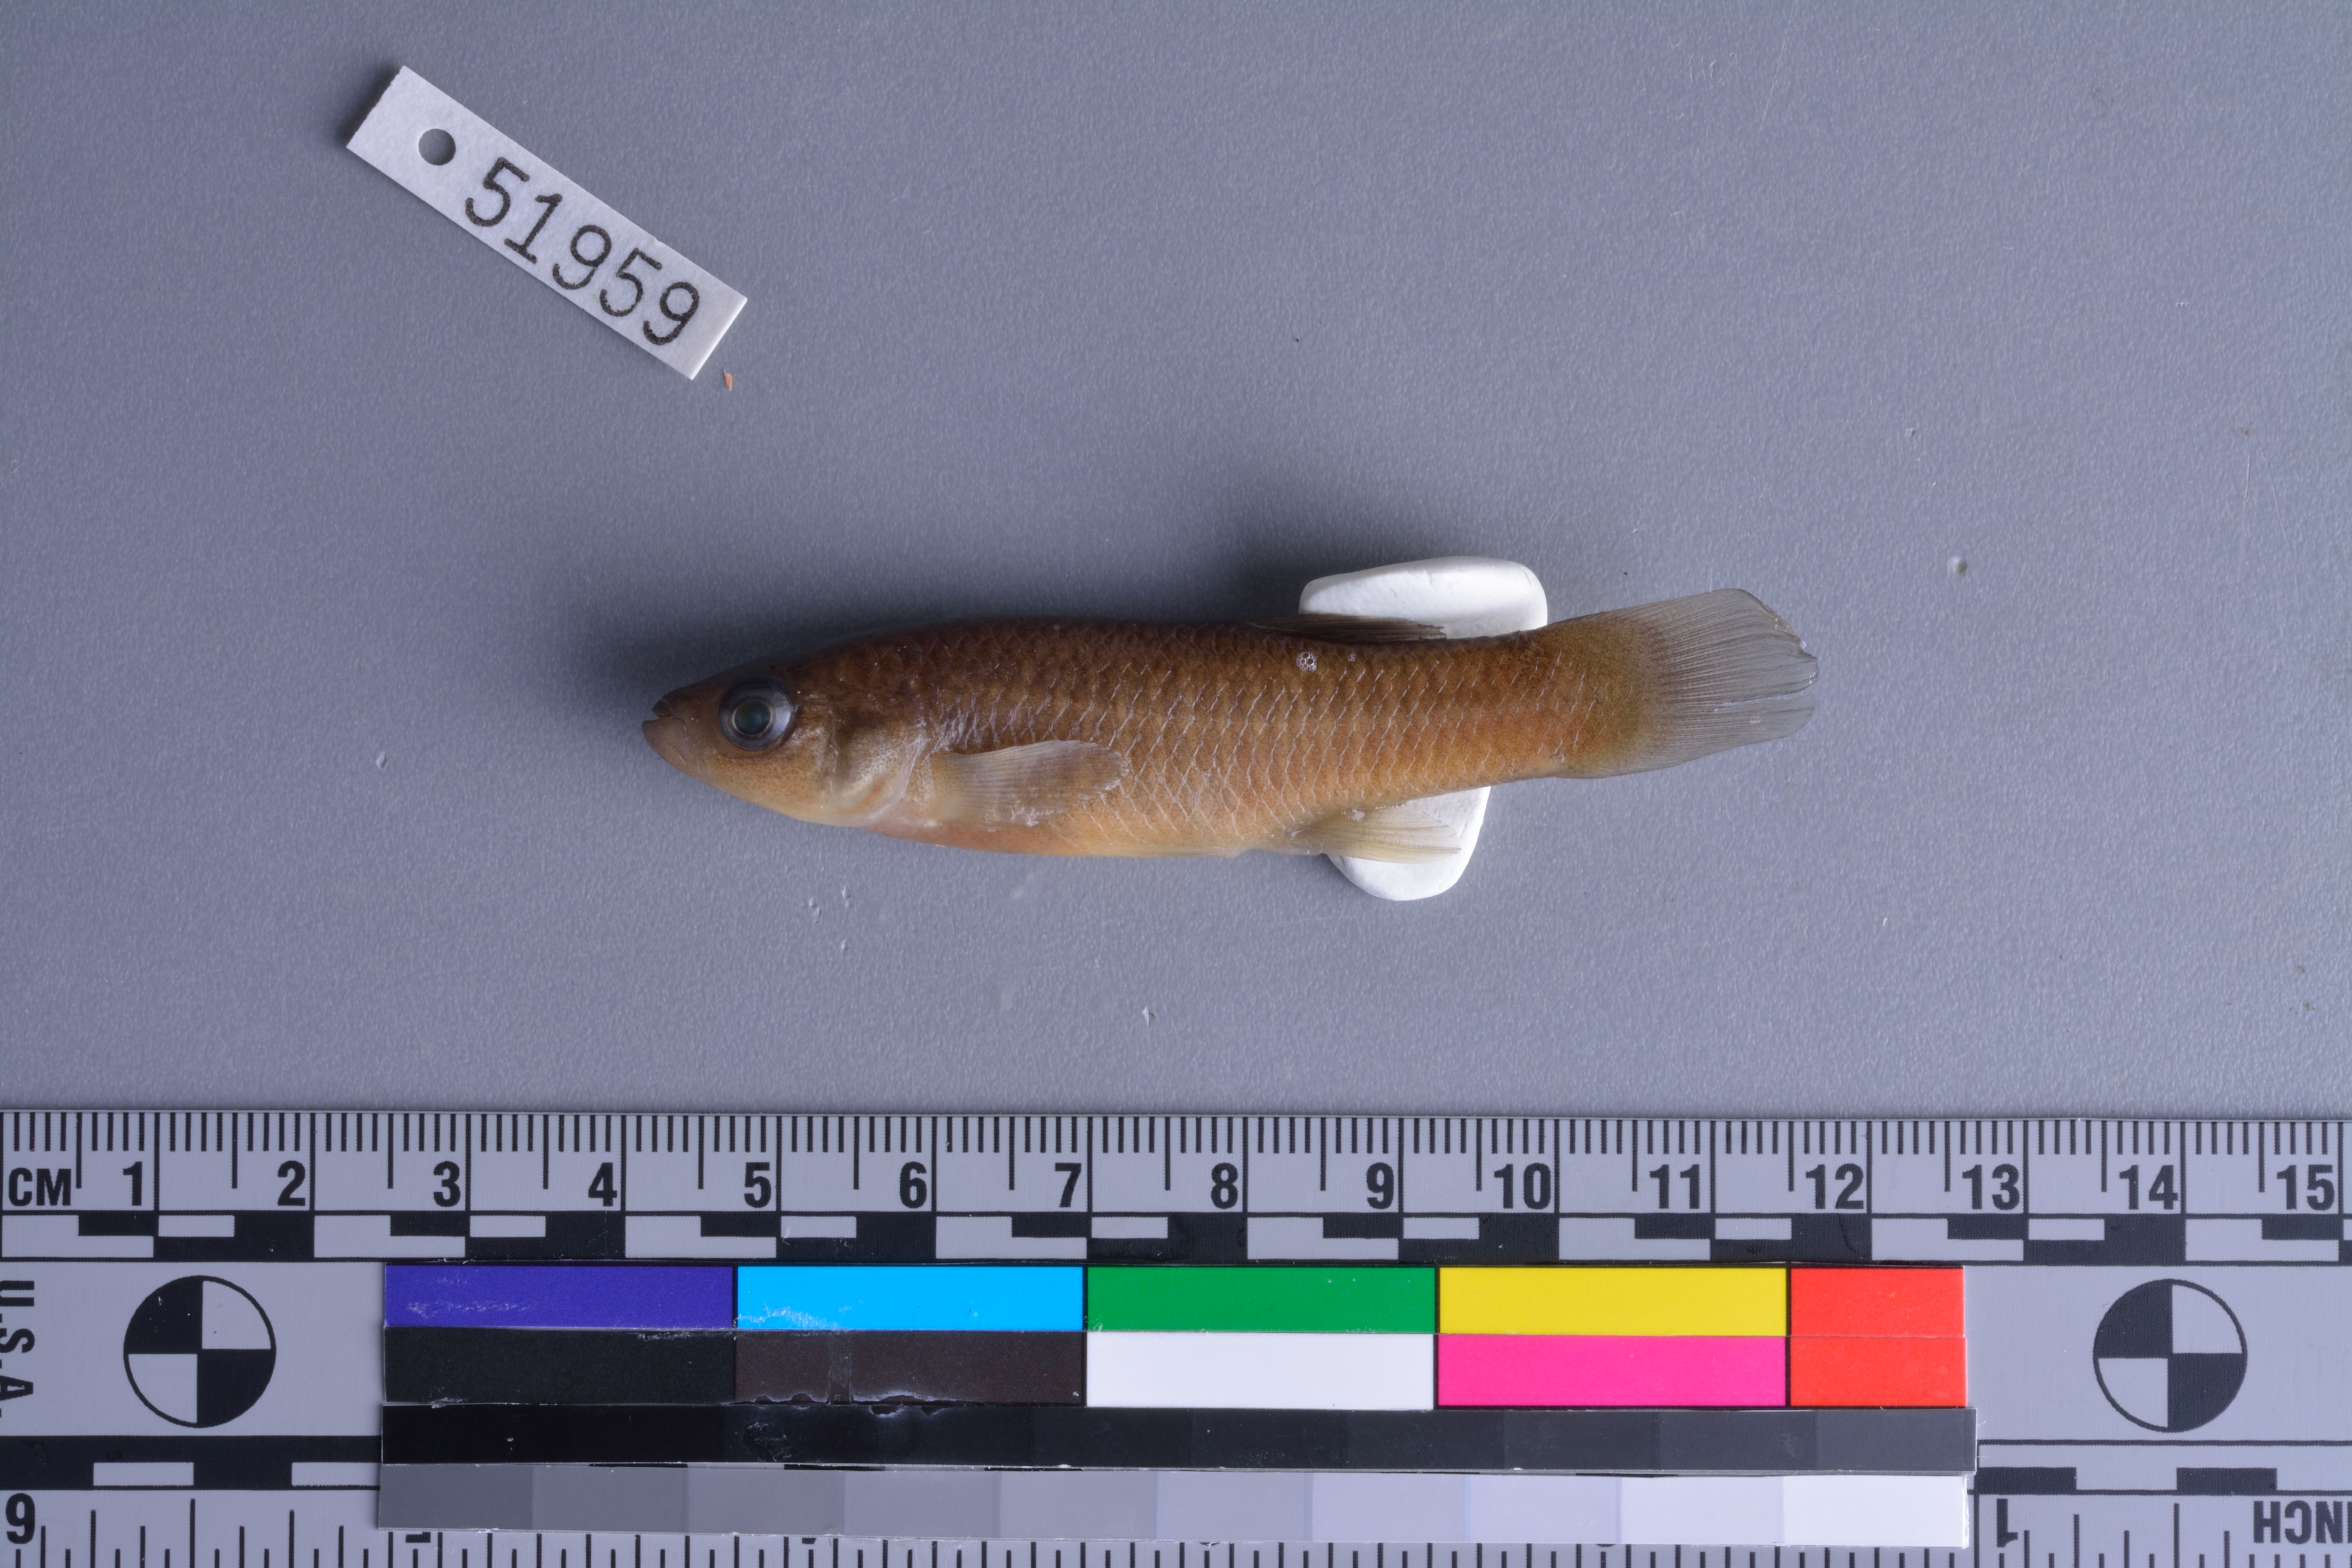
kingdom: Animalia
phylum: Chordata
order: Cyprinodontiformes
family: Fundulidae
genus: Fundulus
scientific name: Fundulus grandis
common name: Gulf killifish
